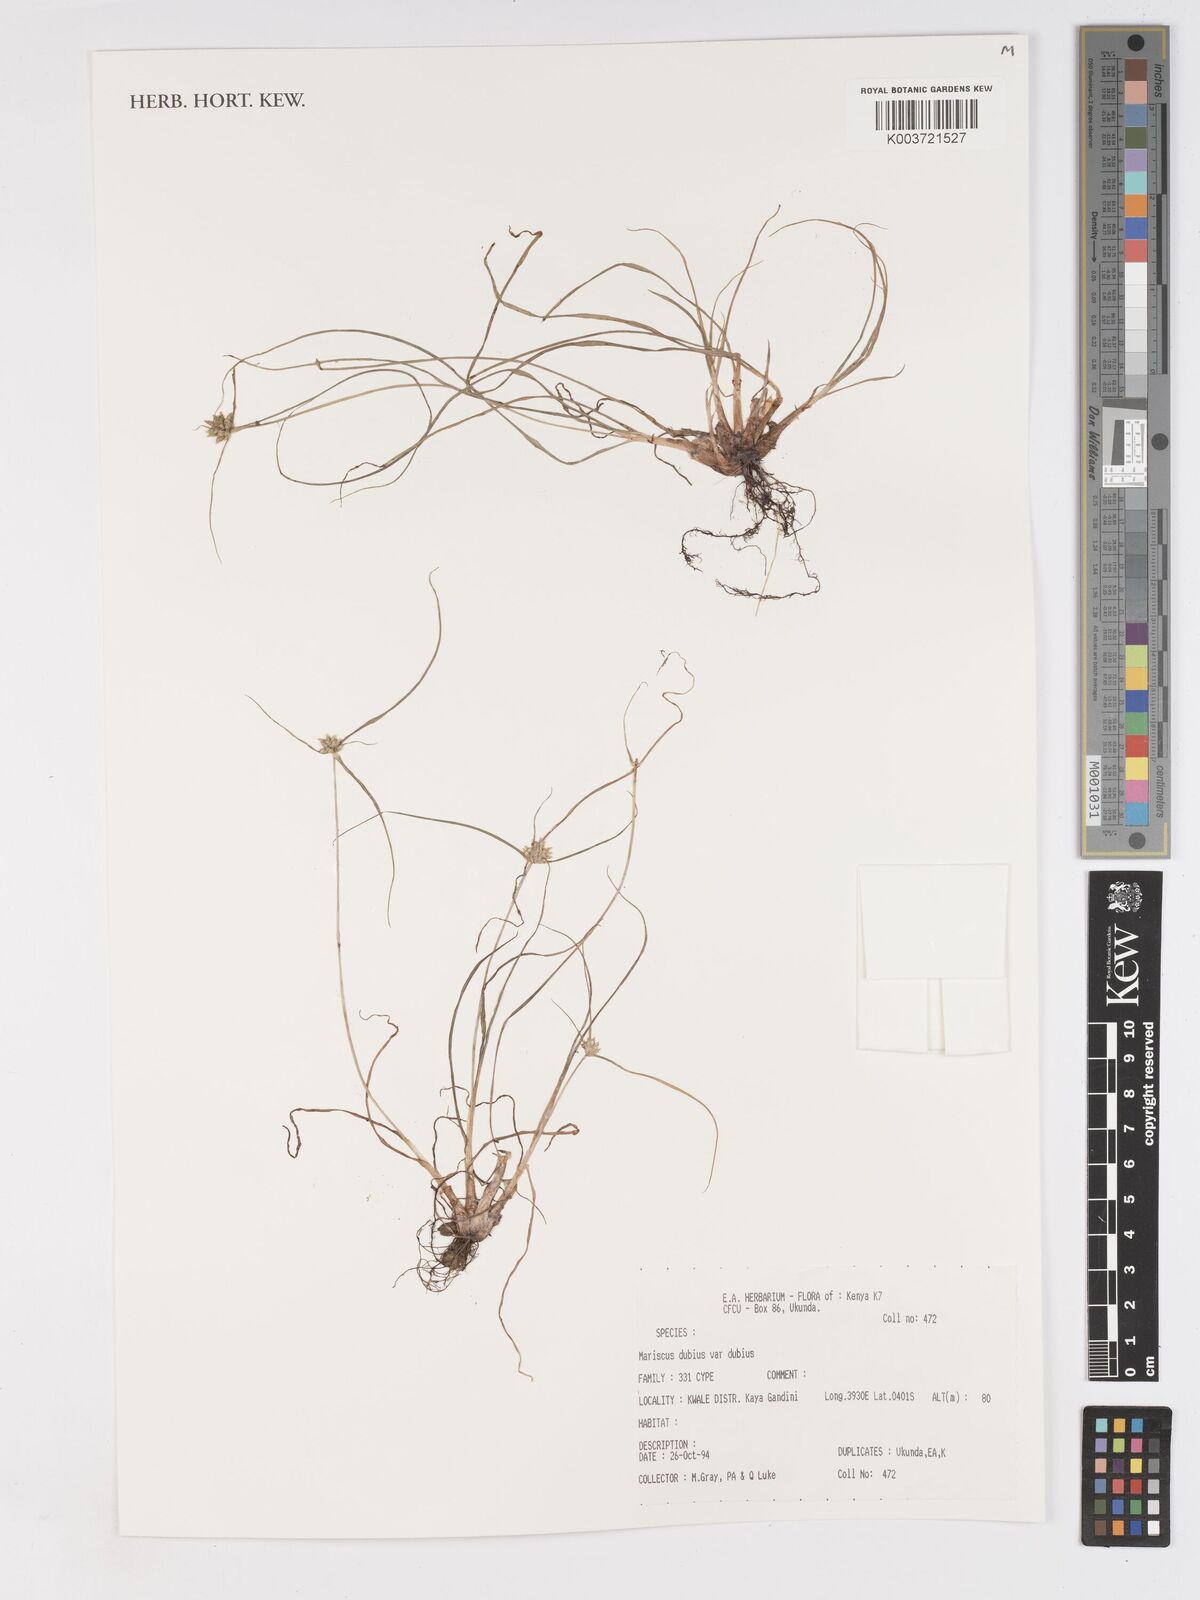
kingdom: Plantae
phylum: Tracheophyta
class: Liliopsida
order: Poales
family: Cyperaceae
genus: Cyperus
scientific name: Cyperus dubius
